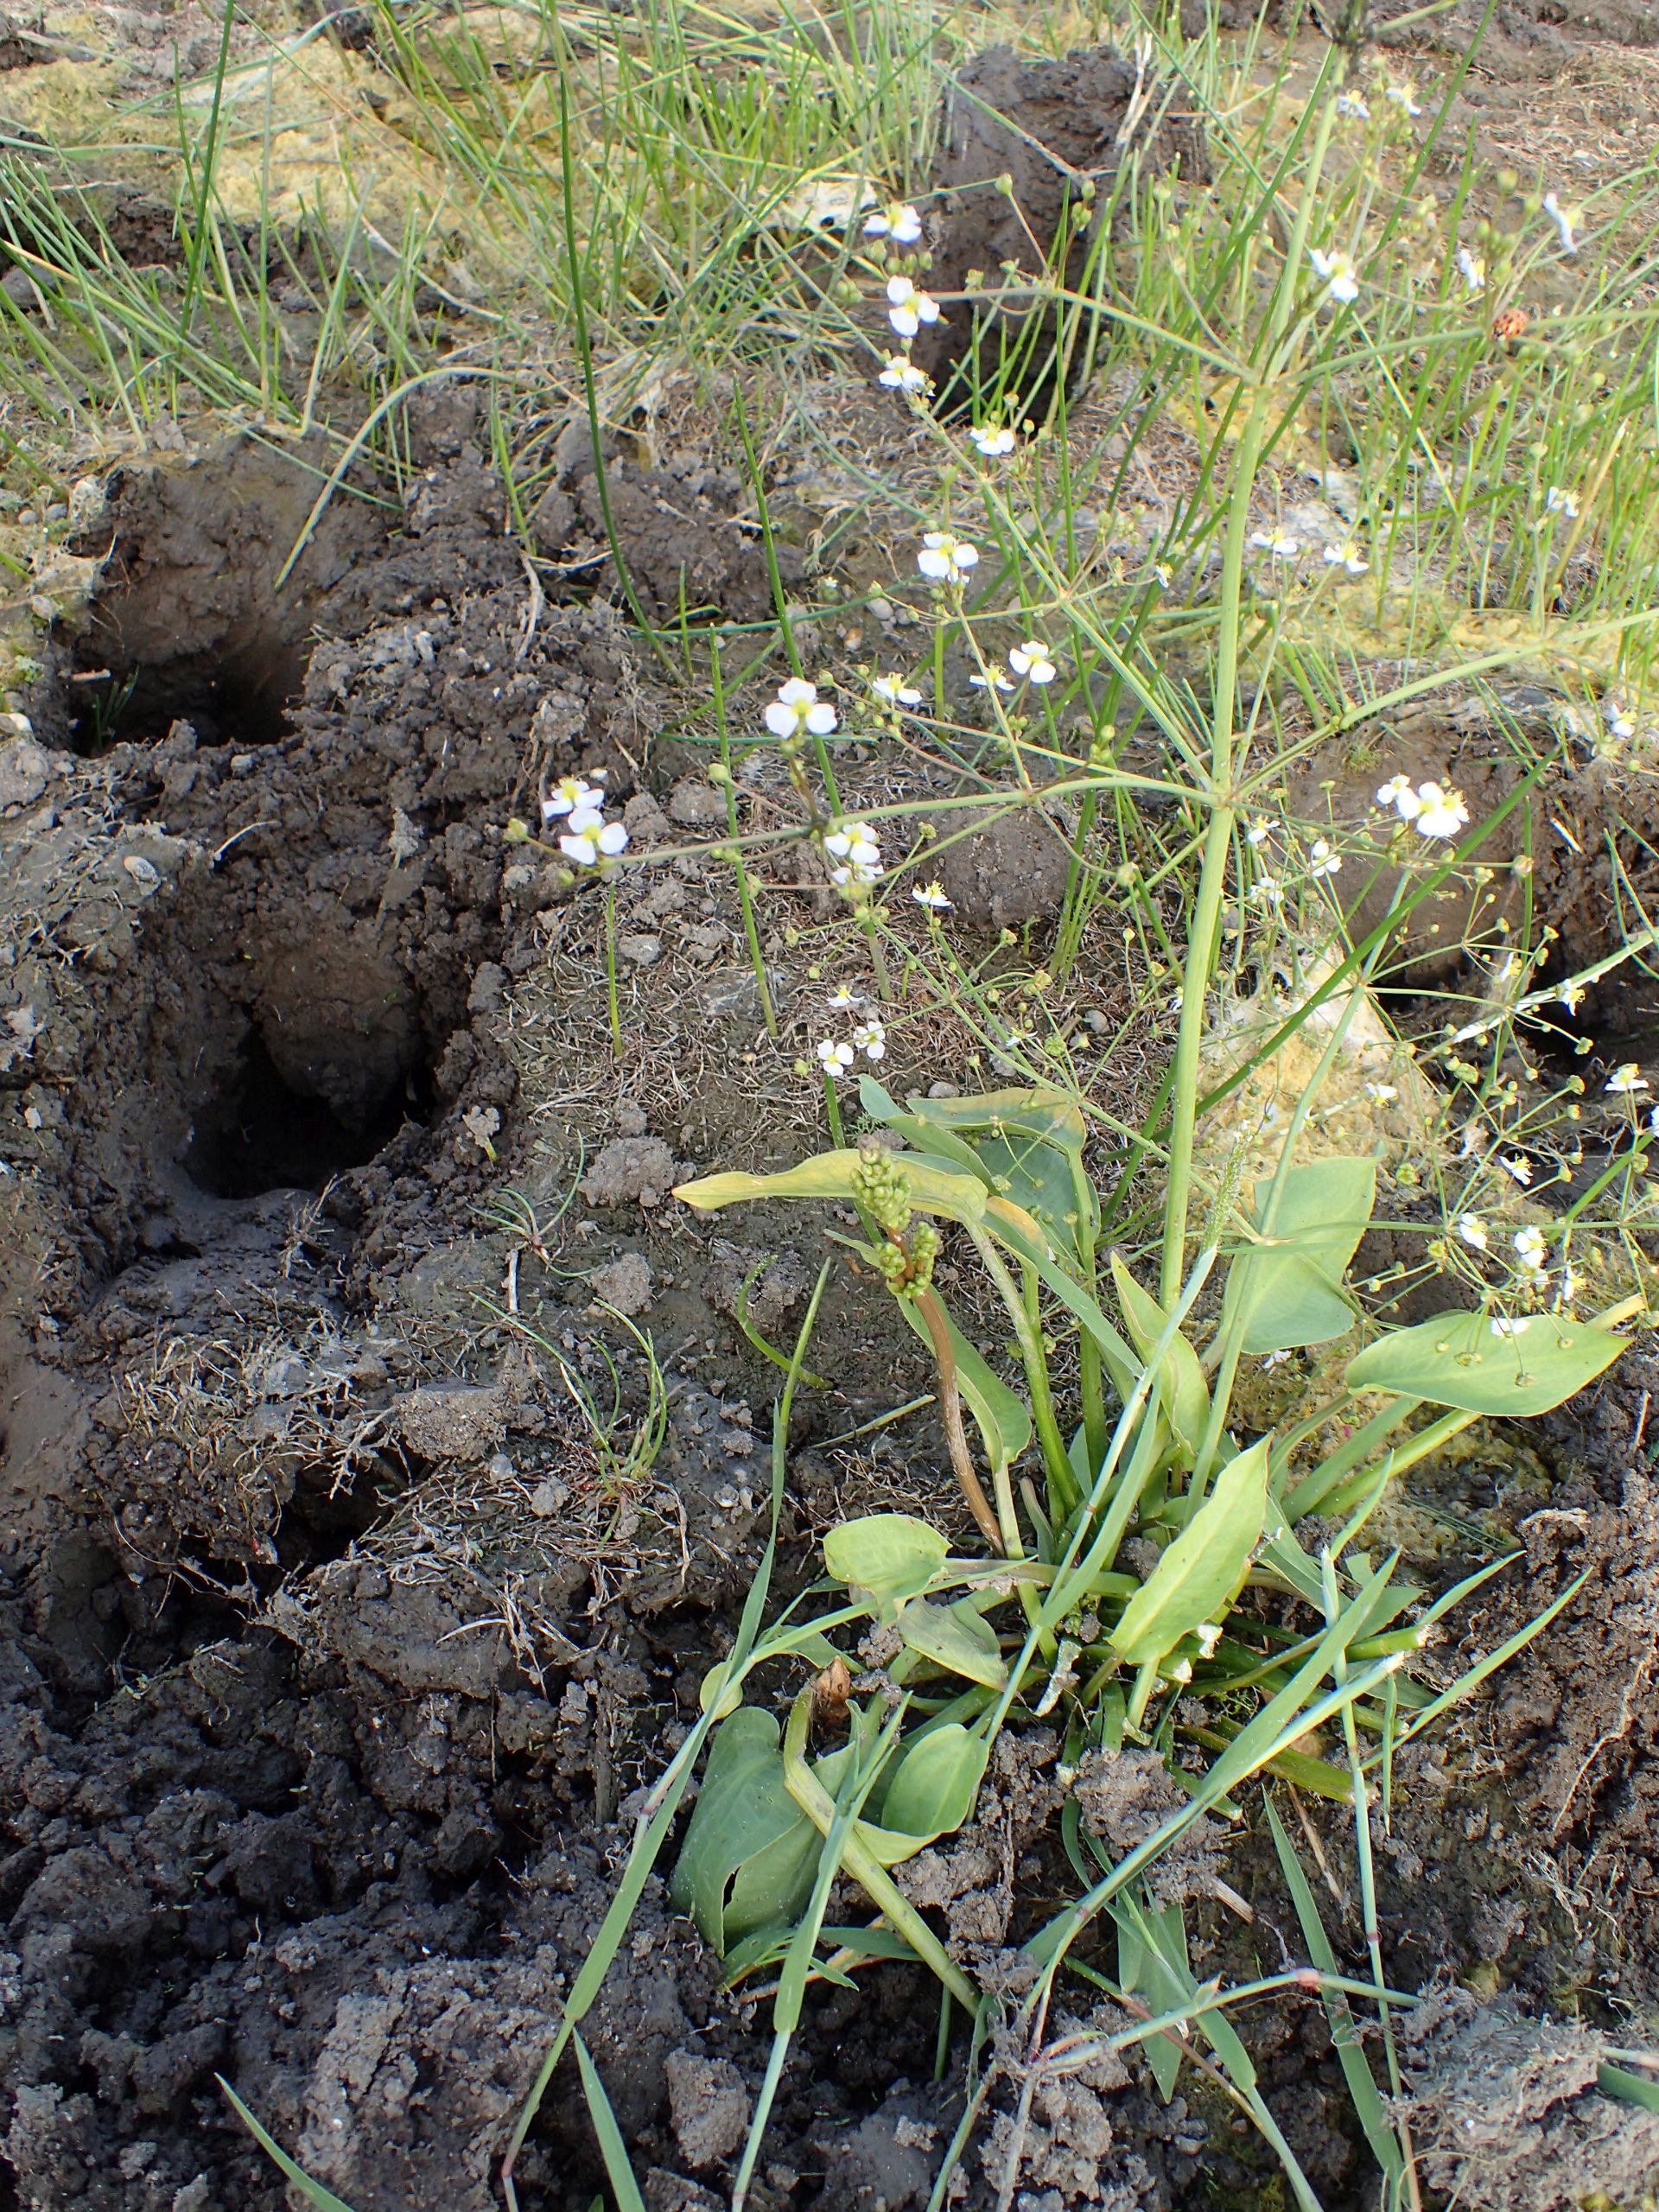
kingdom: Plantae
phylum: Tracheophyta
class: Liliopsida
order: Alismatales
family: Alismataceae
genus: Alisma
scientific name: Alisma plantago-aquatica
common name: Vejbred-skeblad
